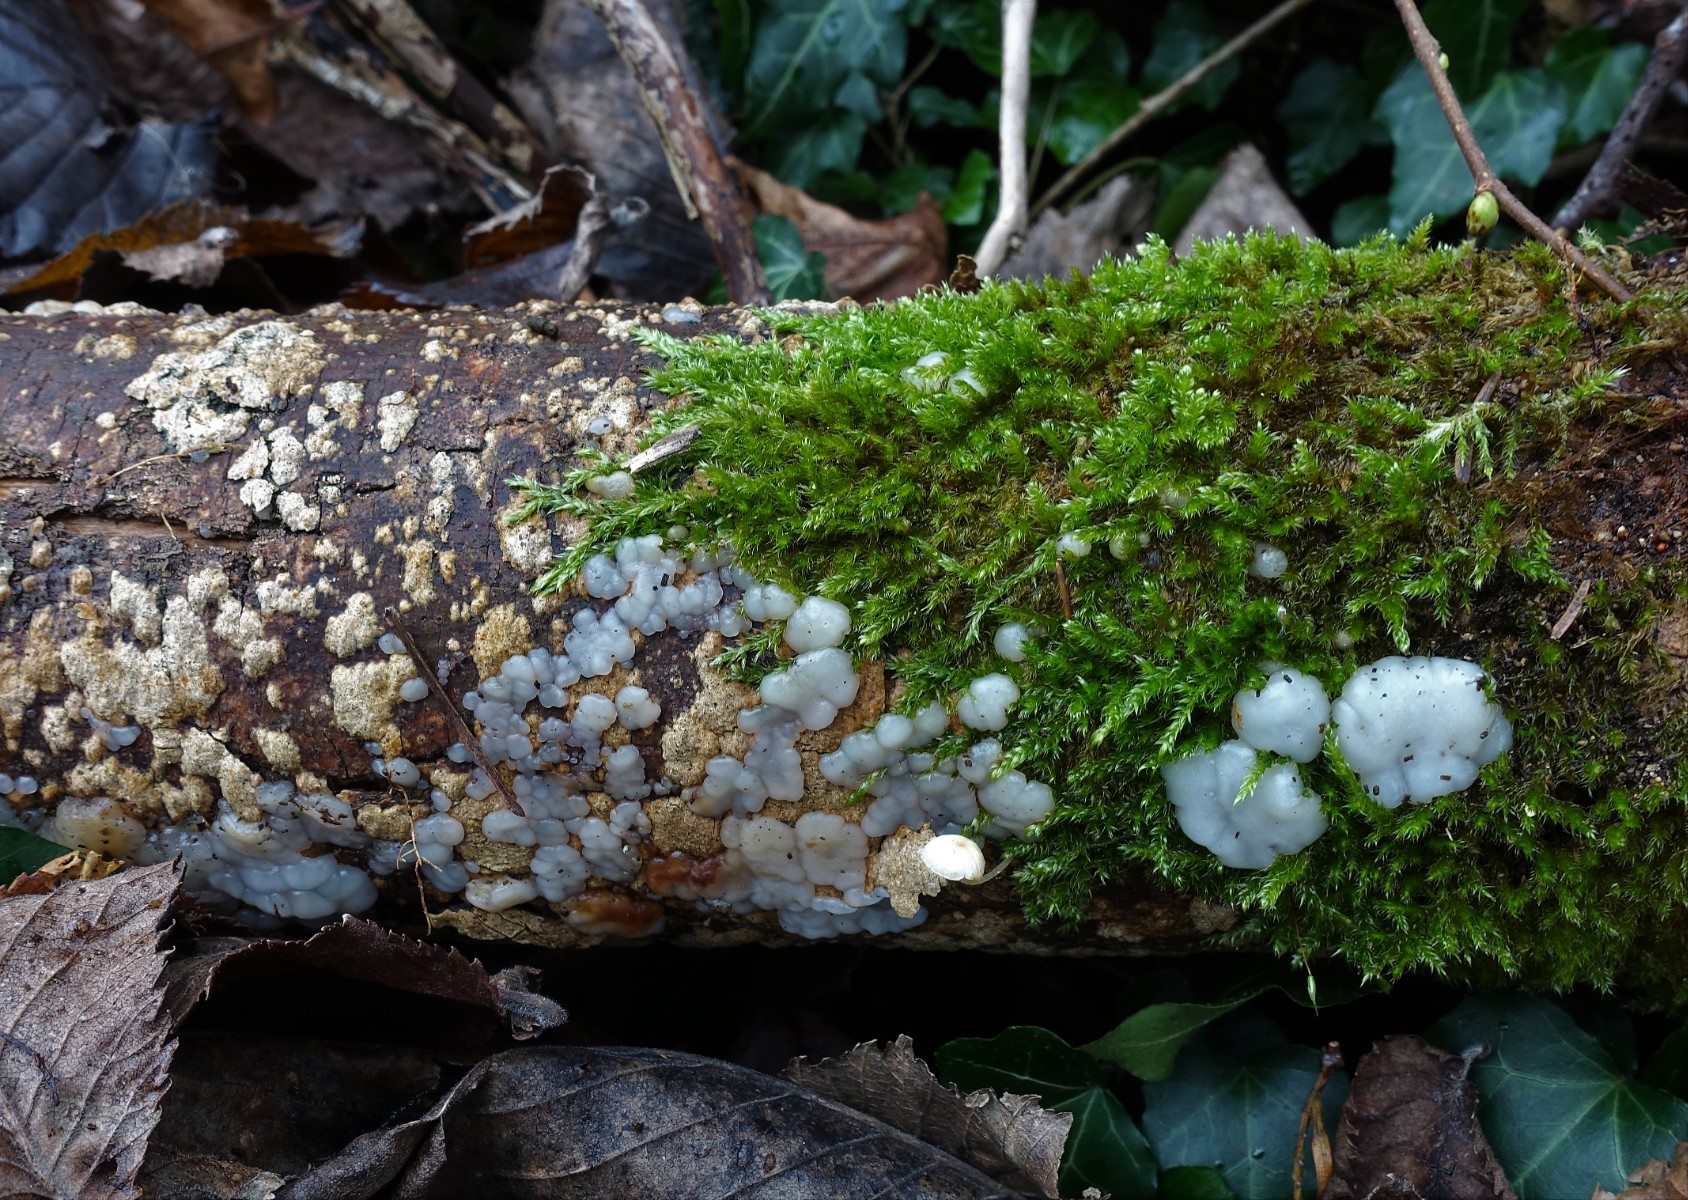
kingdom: Fungi
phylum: Basidiomycota
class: Agaricomycetes
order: Auriculariales
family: Auriculariaceae
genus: Exidia
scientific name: Exidia thuretiana
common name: hvidlig bævretop
